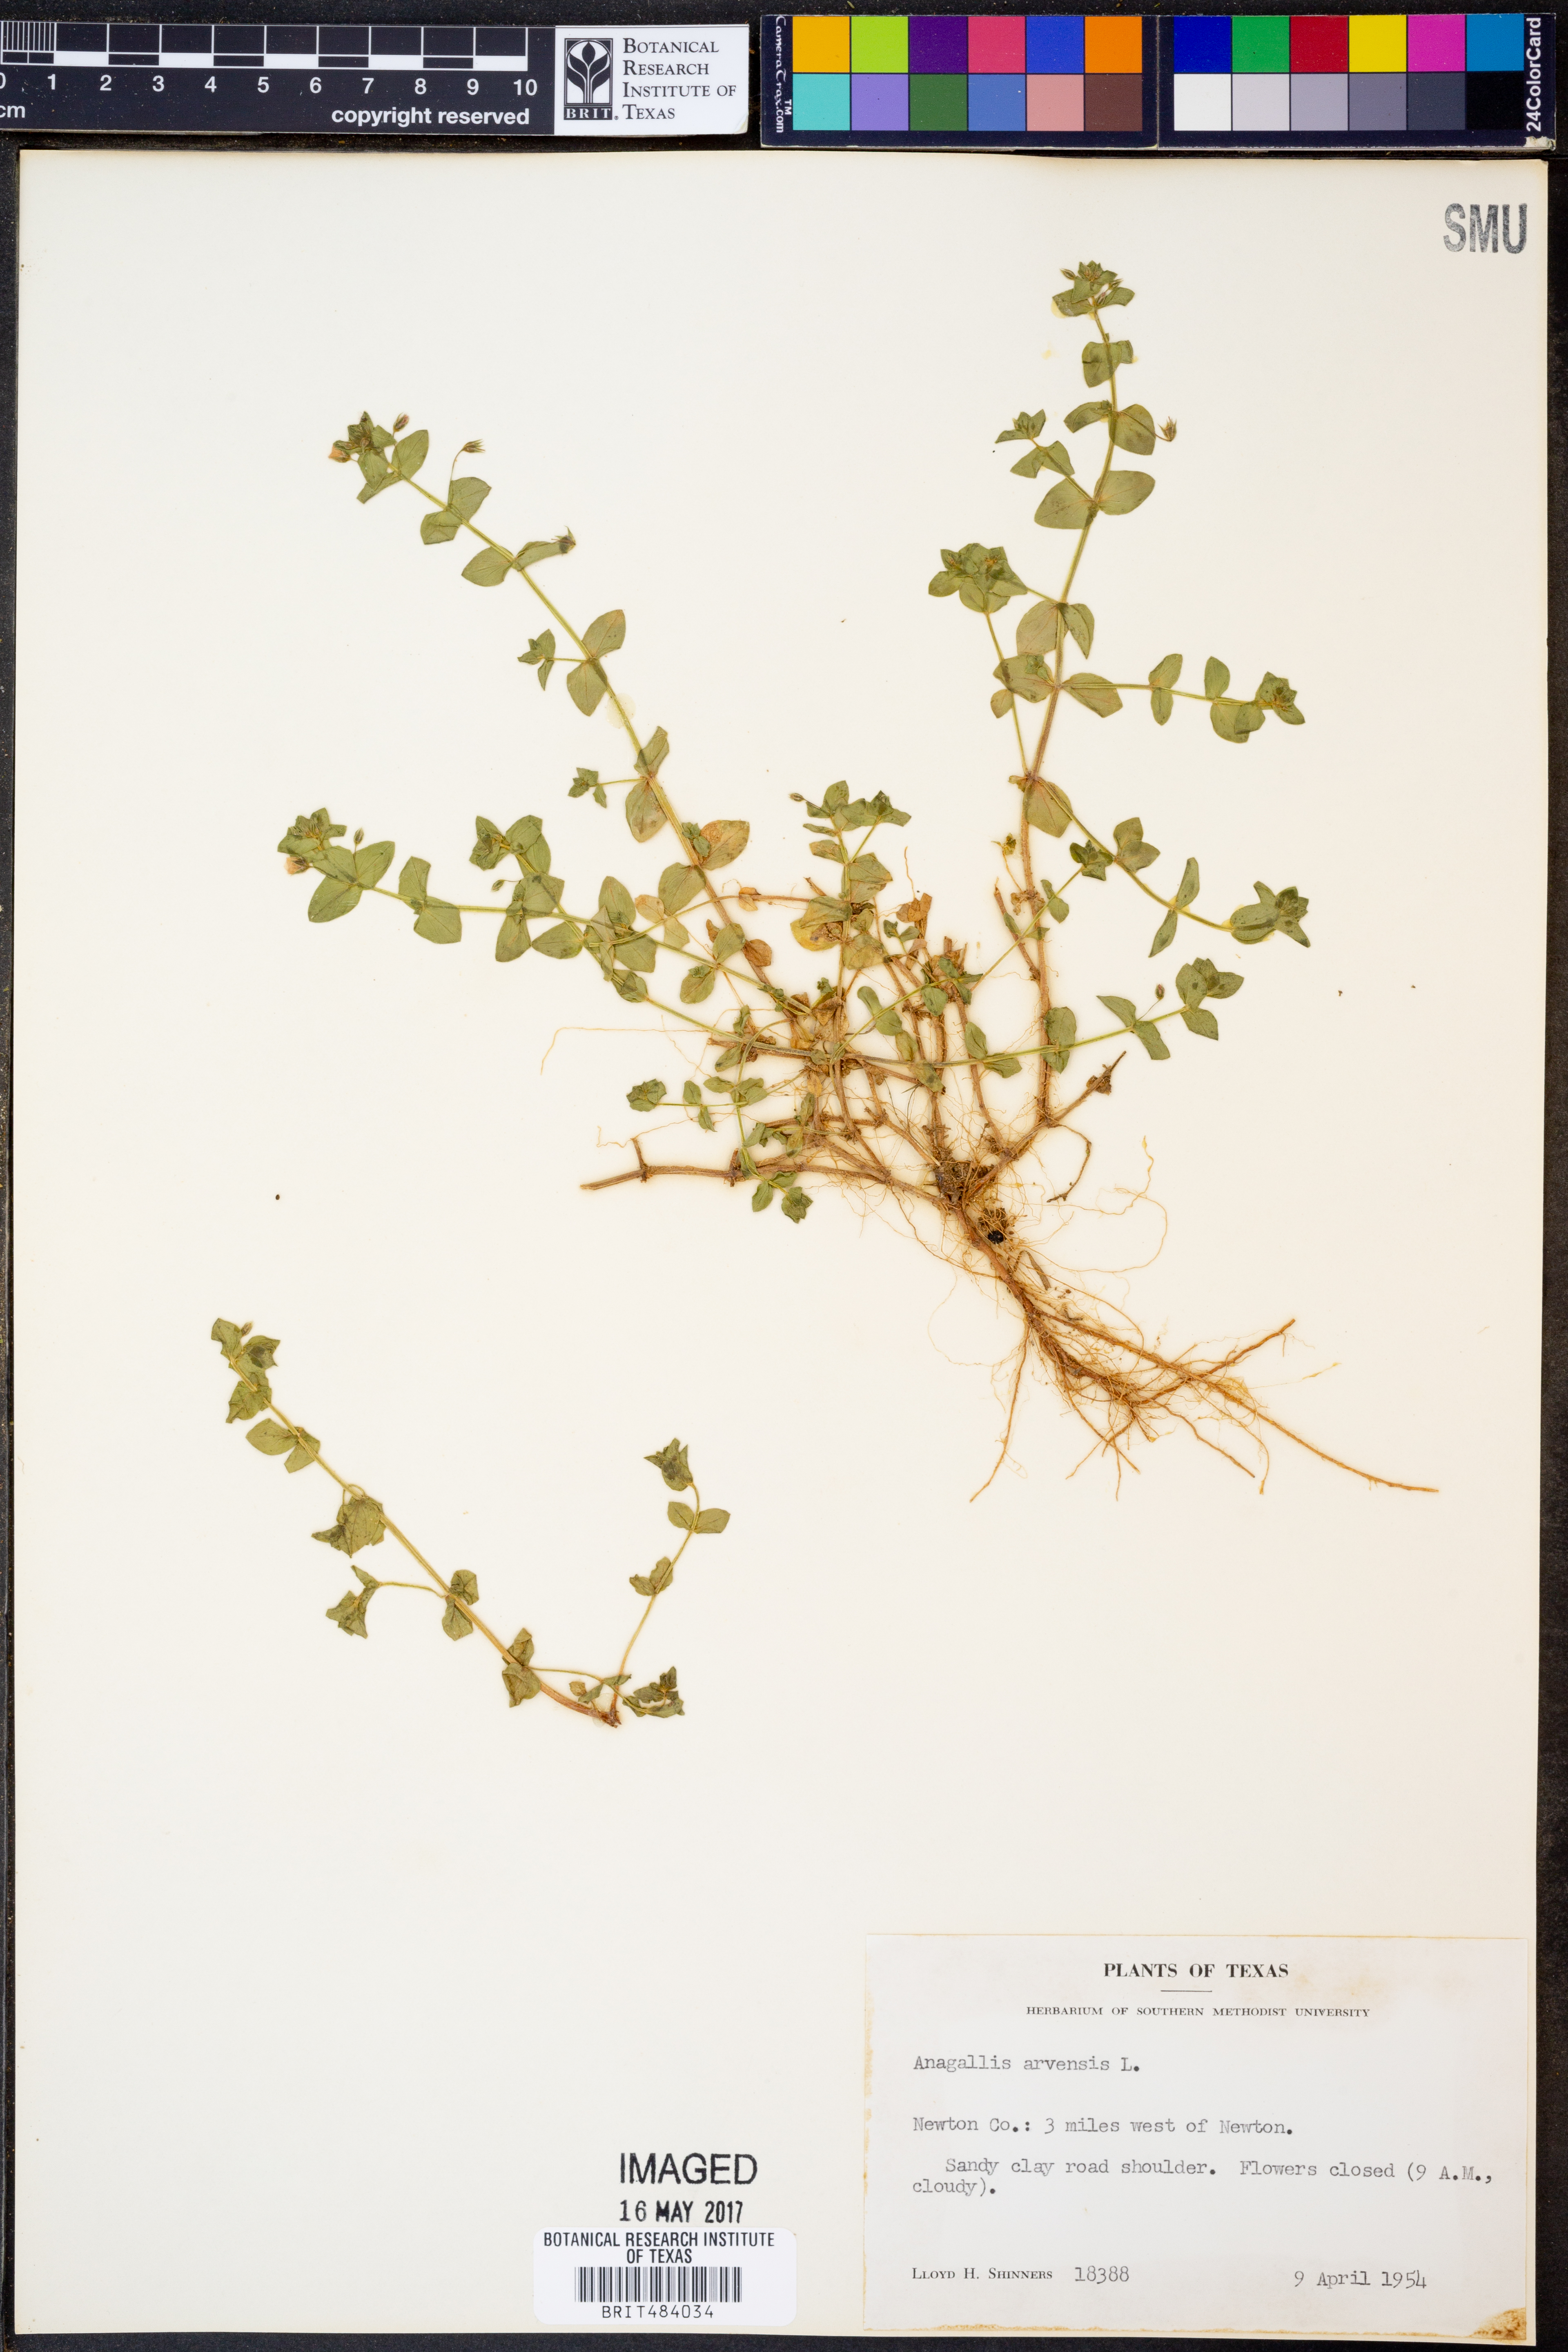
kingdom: Plantae
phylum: Tracheophyta
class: Magnoliopsida
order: Ericales
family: Primulaceae
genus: Lysimachia
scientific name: Lysimachia arvensis
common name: Scarlet pimpernel
